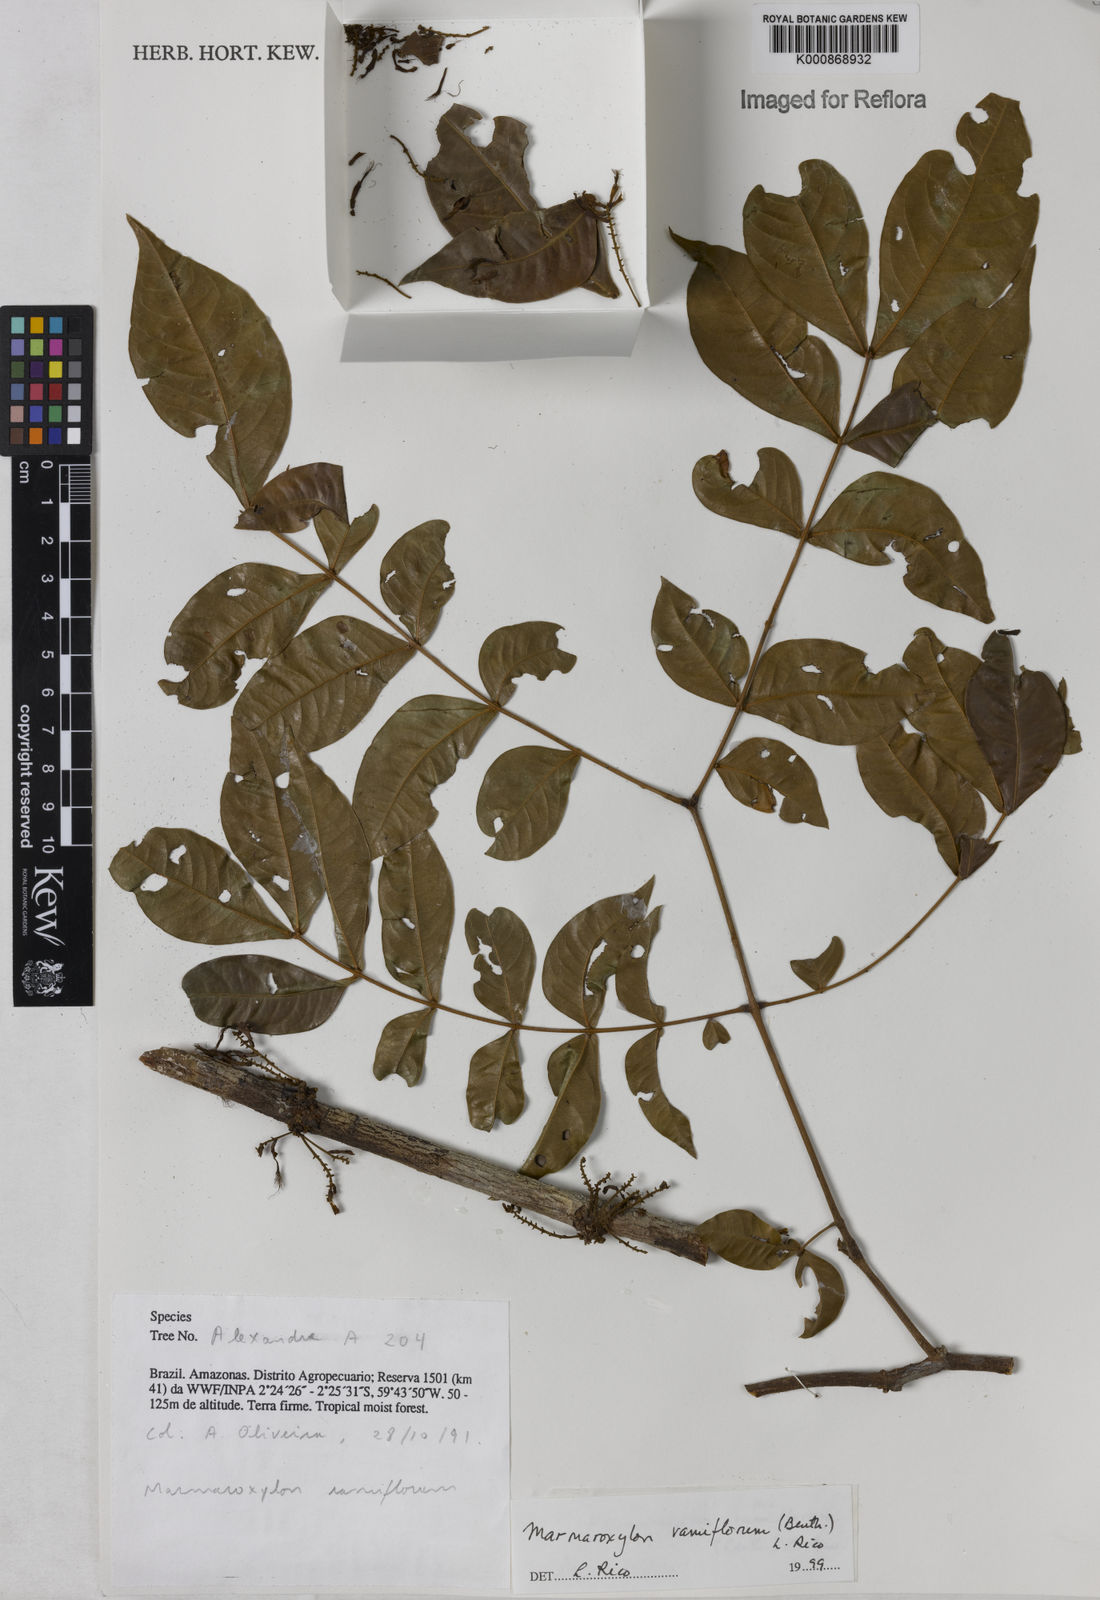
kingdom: Plantae
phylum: Tracheophyta
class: Magnoliopsida
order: Fabales
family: Fabaceae
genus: Zygia
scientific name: Zygia dinizii
